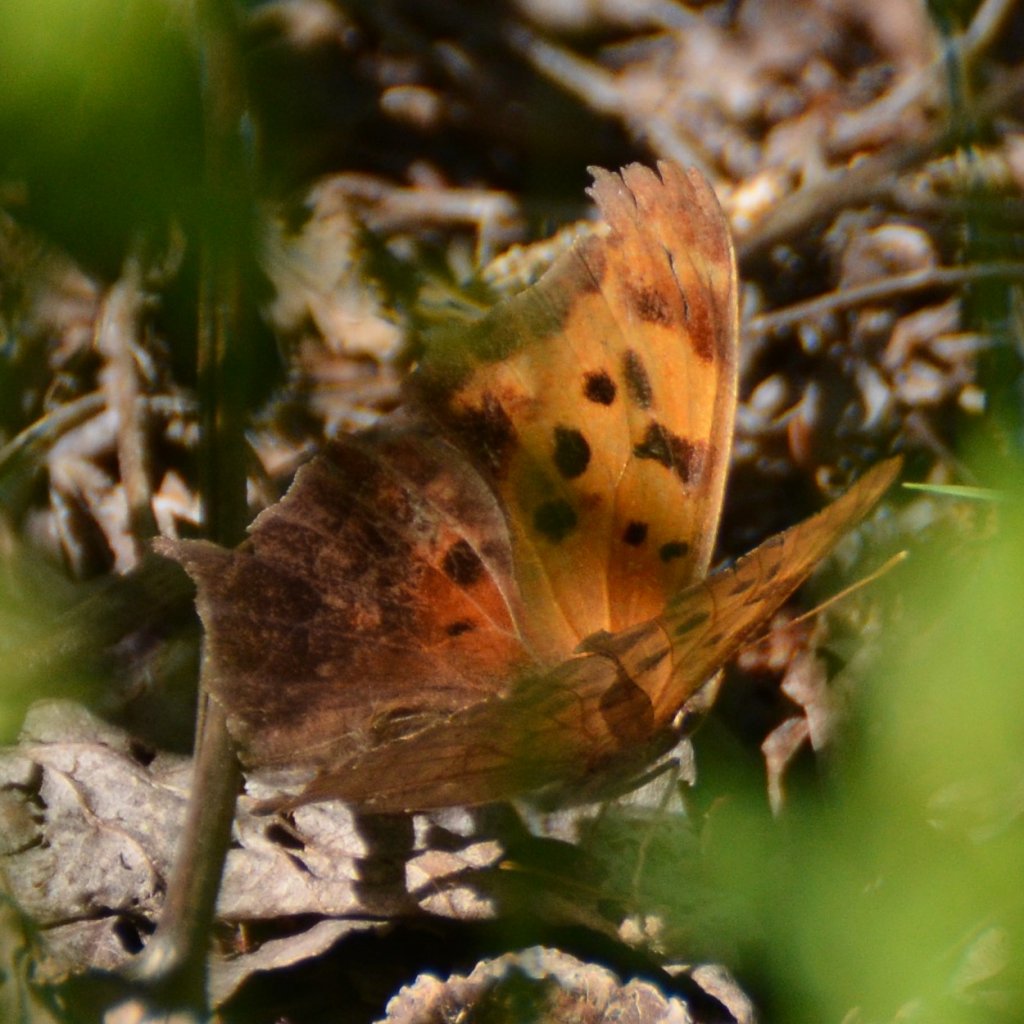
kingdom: Animalia
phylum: Arthropoda
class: Insecta
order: Lepidoptera
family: Nymphalidae
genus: Polygonia
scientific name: Polygonia interrogationis
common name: Question Mark
